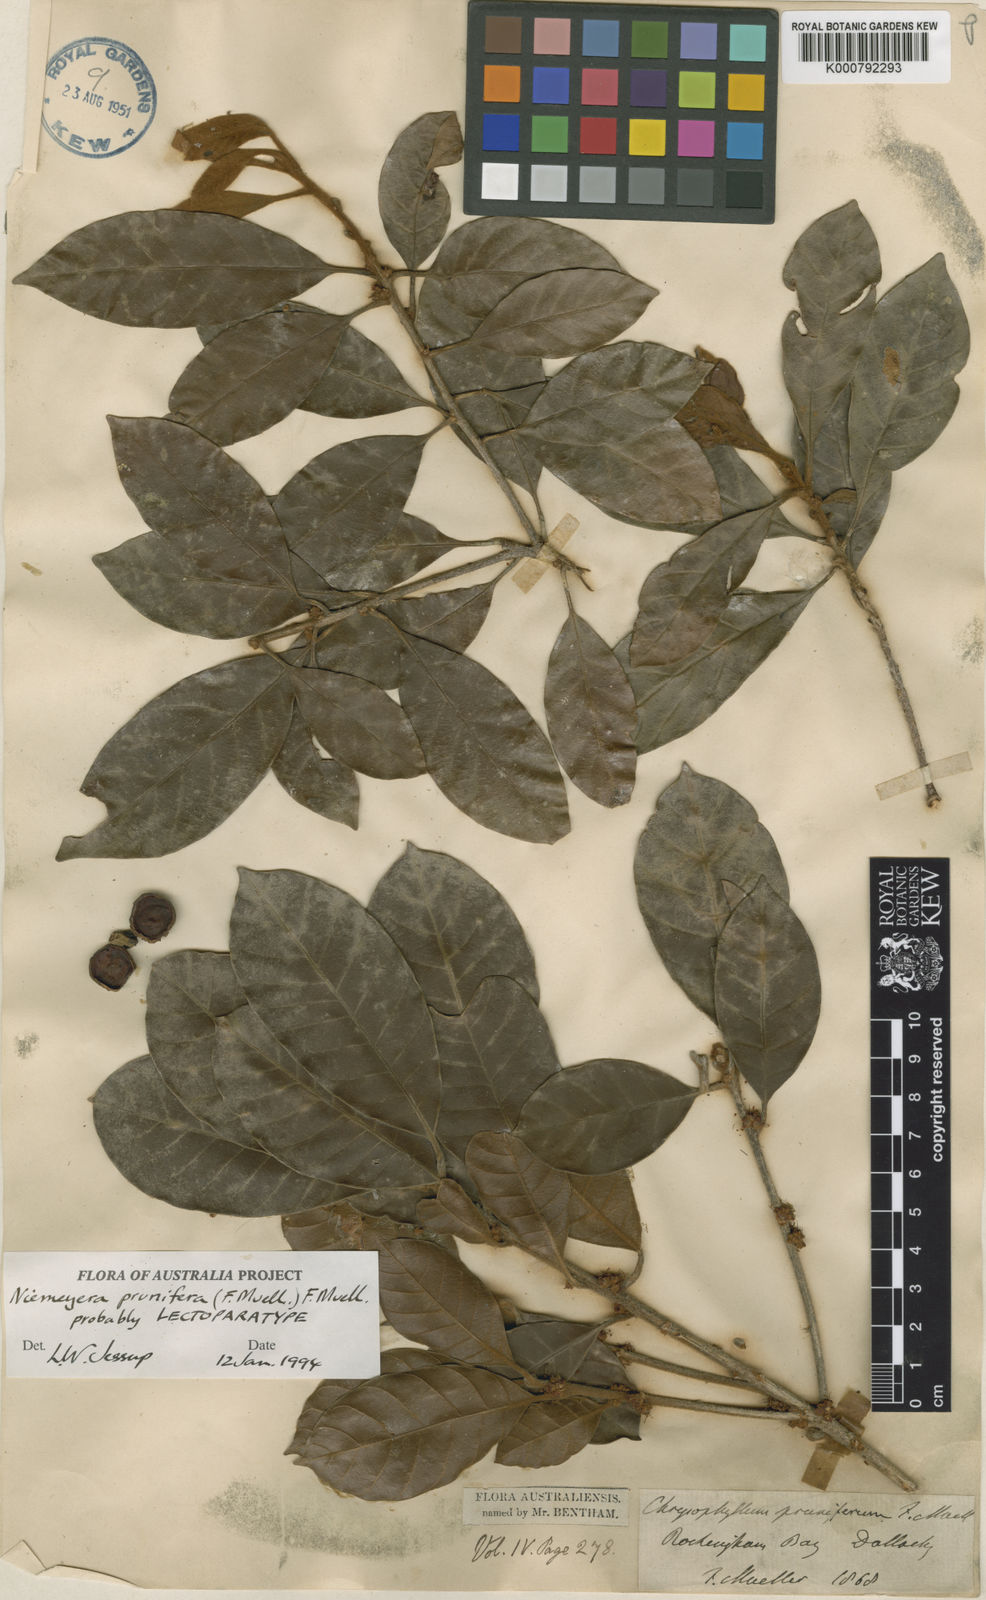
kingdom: Plantae
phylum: Tracheophyta
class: Magnoliopsida
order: Ericales
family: Sapotaceae
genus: Niemeyera
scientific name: Niemeyera prunifera
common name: Brown pearwood
